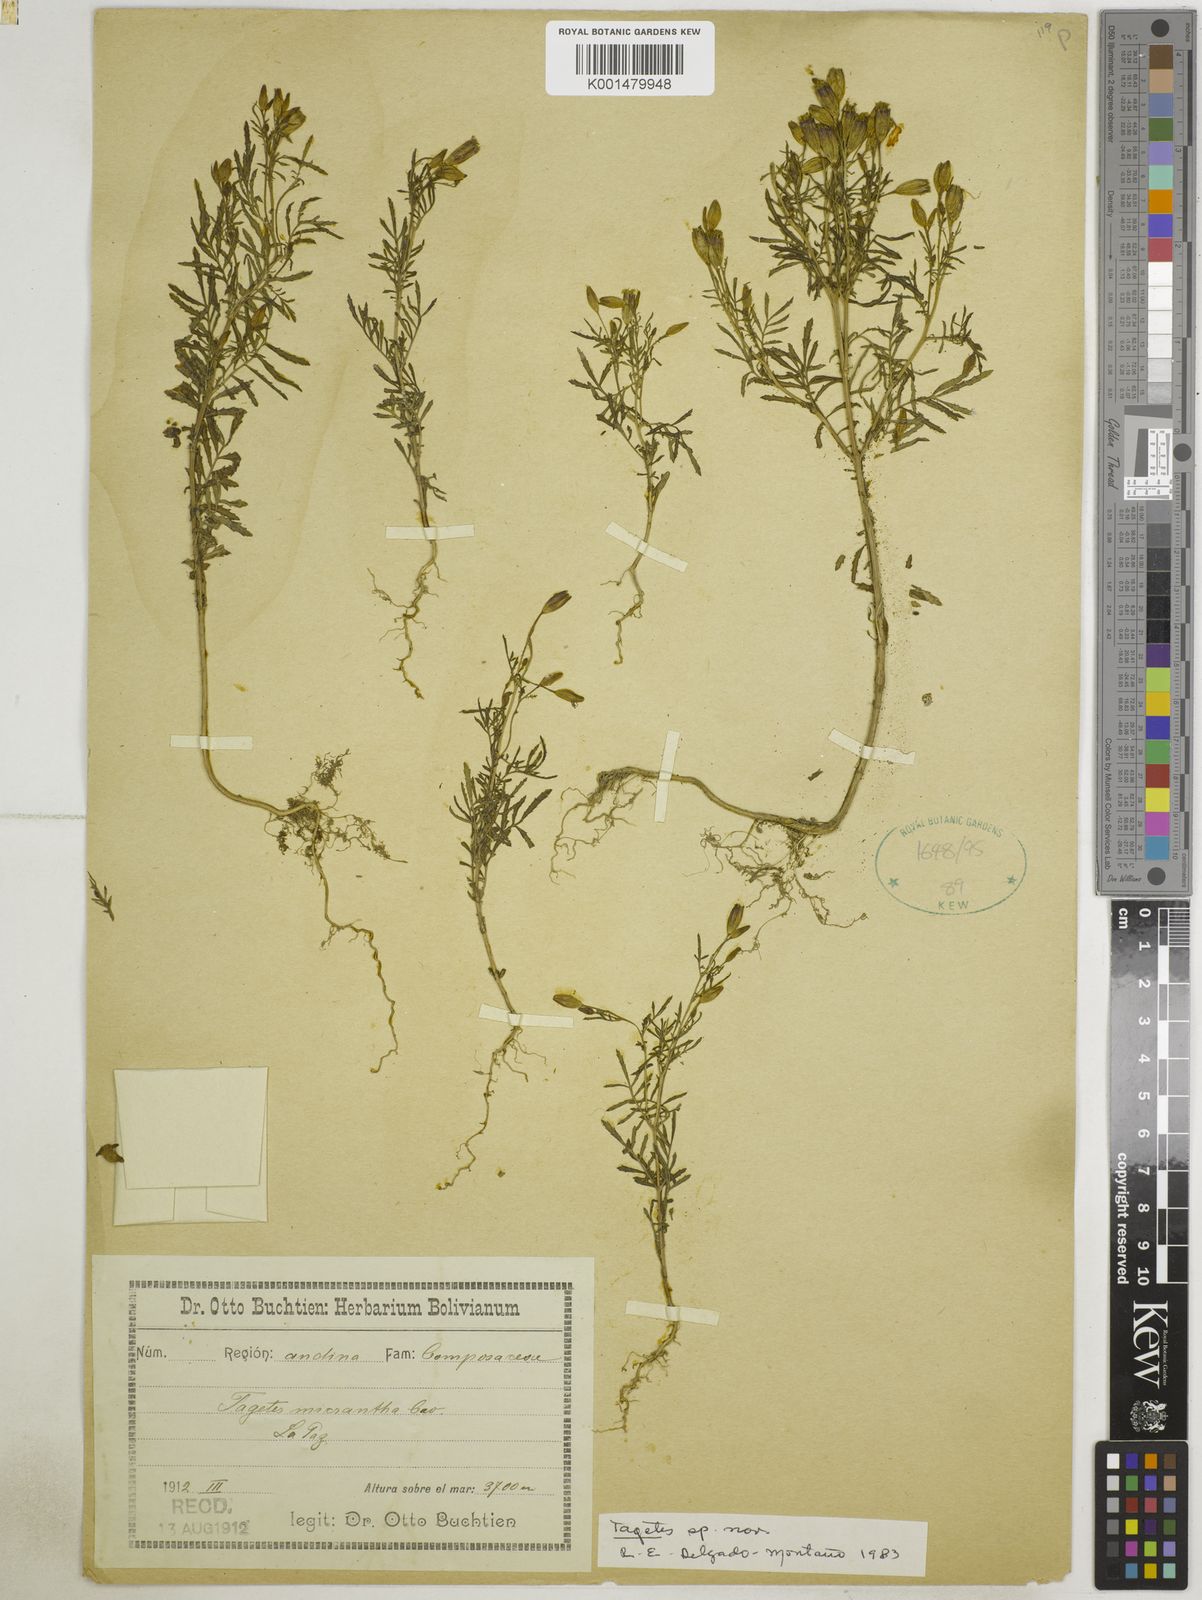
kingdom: Plantae
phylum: Tracheophyta
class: Magnoliopsida
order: Asterales
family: Asteraceae
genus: Tagetes
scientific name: Tagetes micrantha
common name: Licorice marigold
